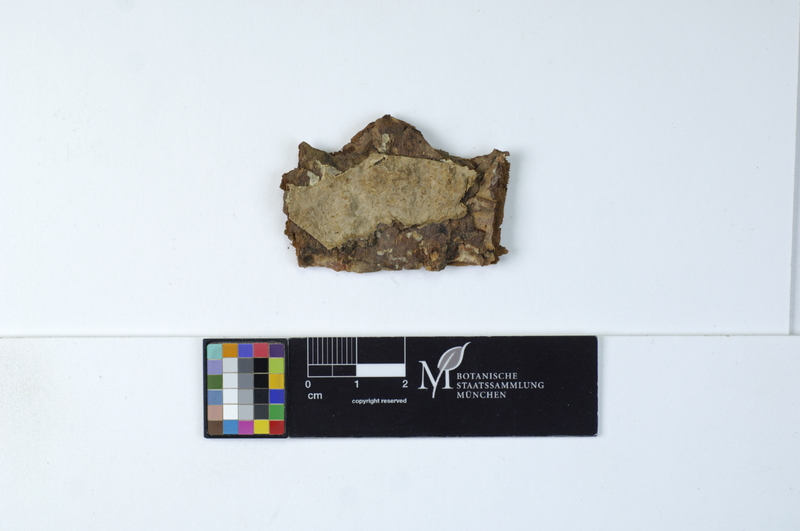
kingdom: Fungi
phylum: Basidiomycota
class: Agaricomycetes
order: Russulales
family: Echinodontiaceae
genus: Amylostereum
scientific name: Amylostereum areolatum
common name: White rot fungus
